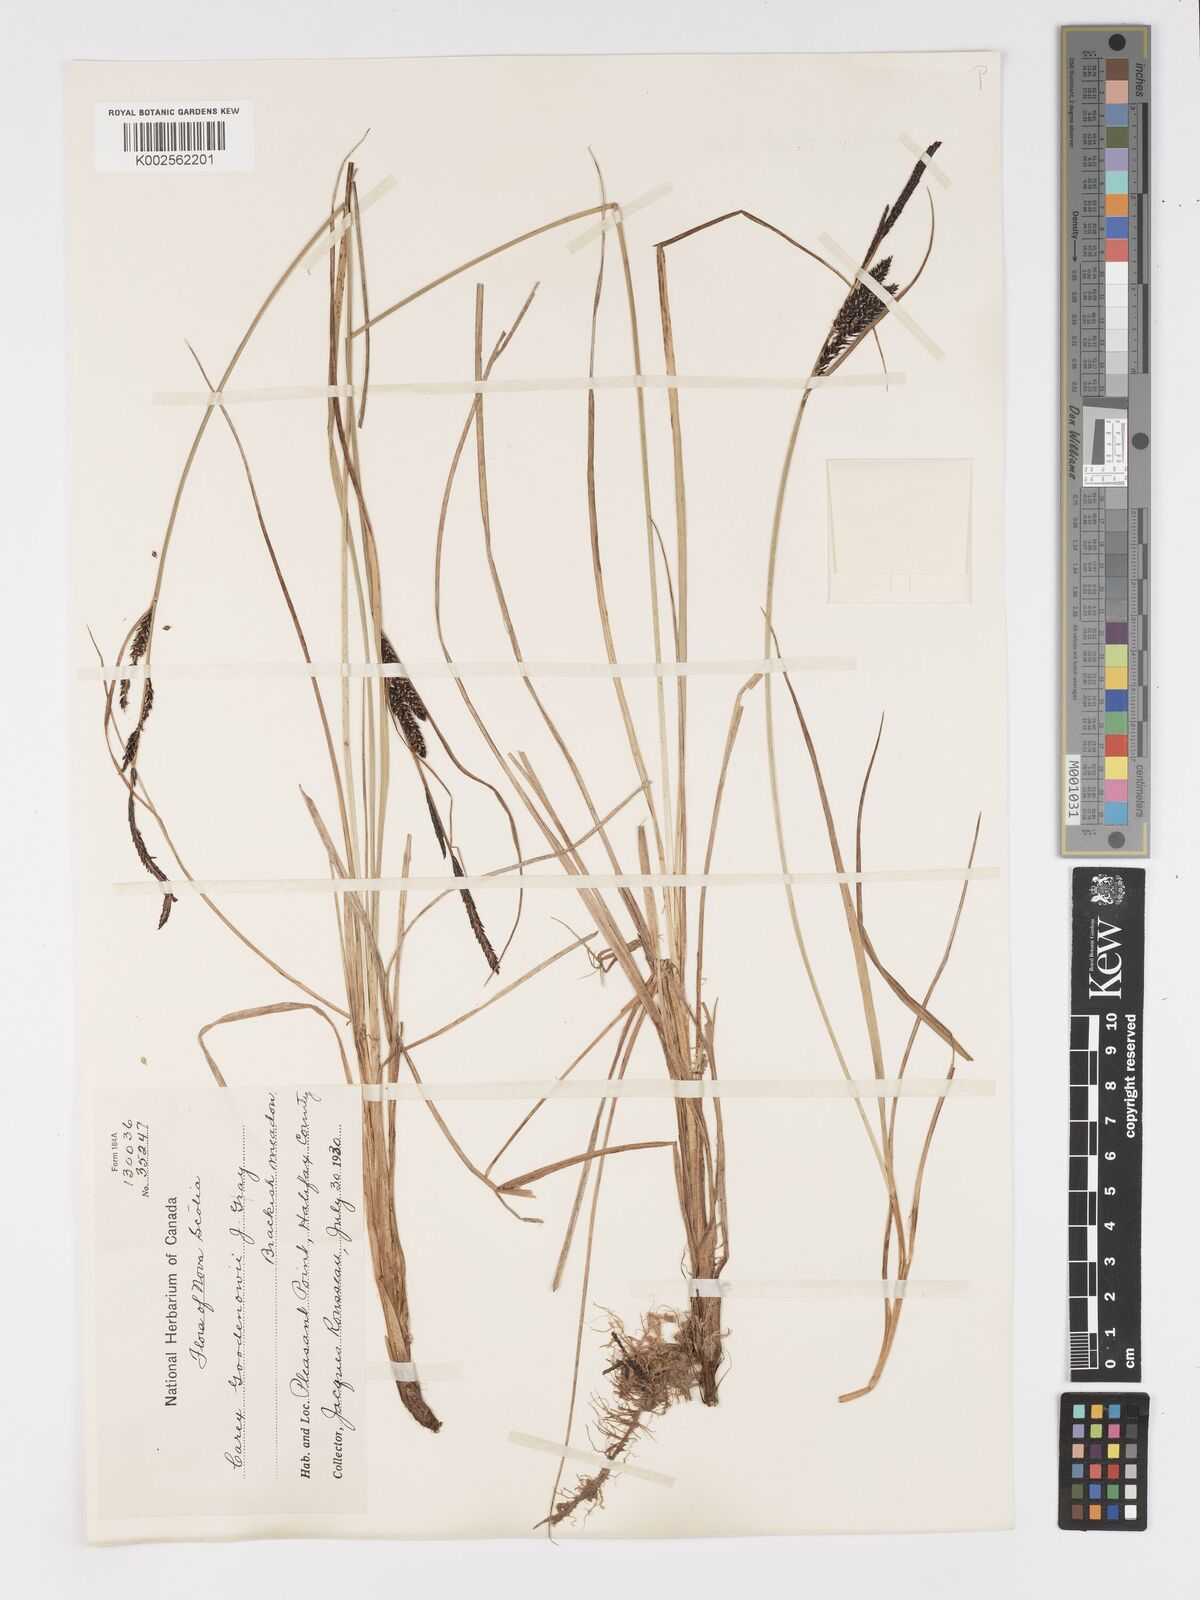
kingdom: Plantae
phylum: Tracheophyta
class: Liliopsida
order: Poales
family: Cyperaceae
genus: Carex
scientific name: Carex nigra
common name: Common sedge
